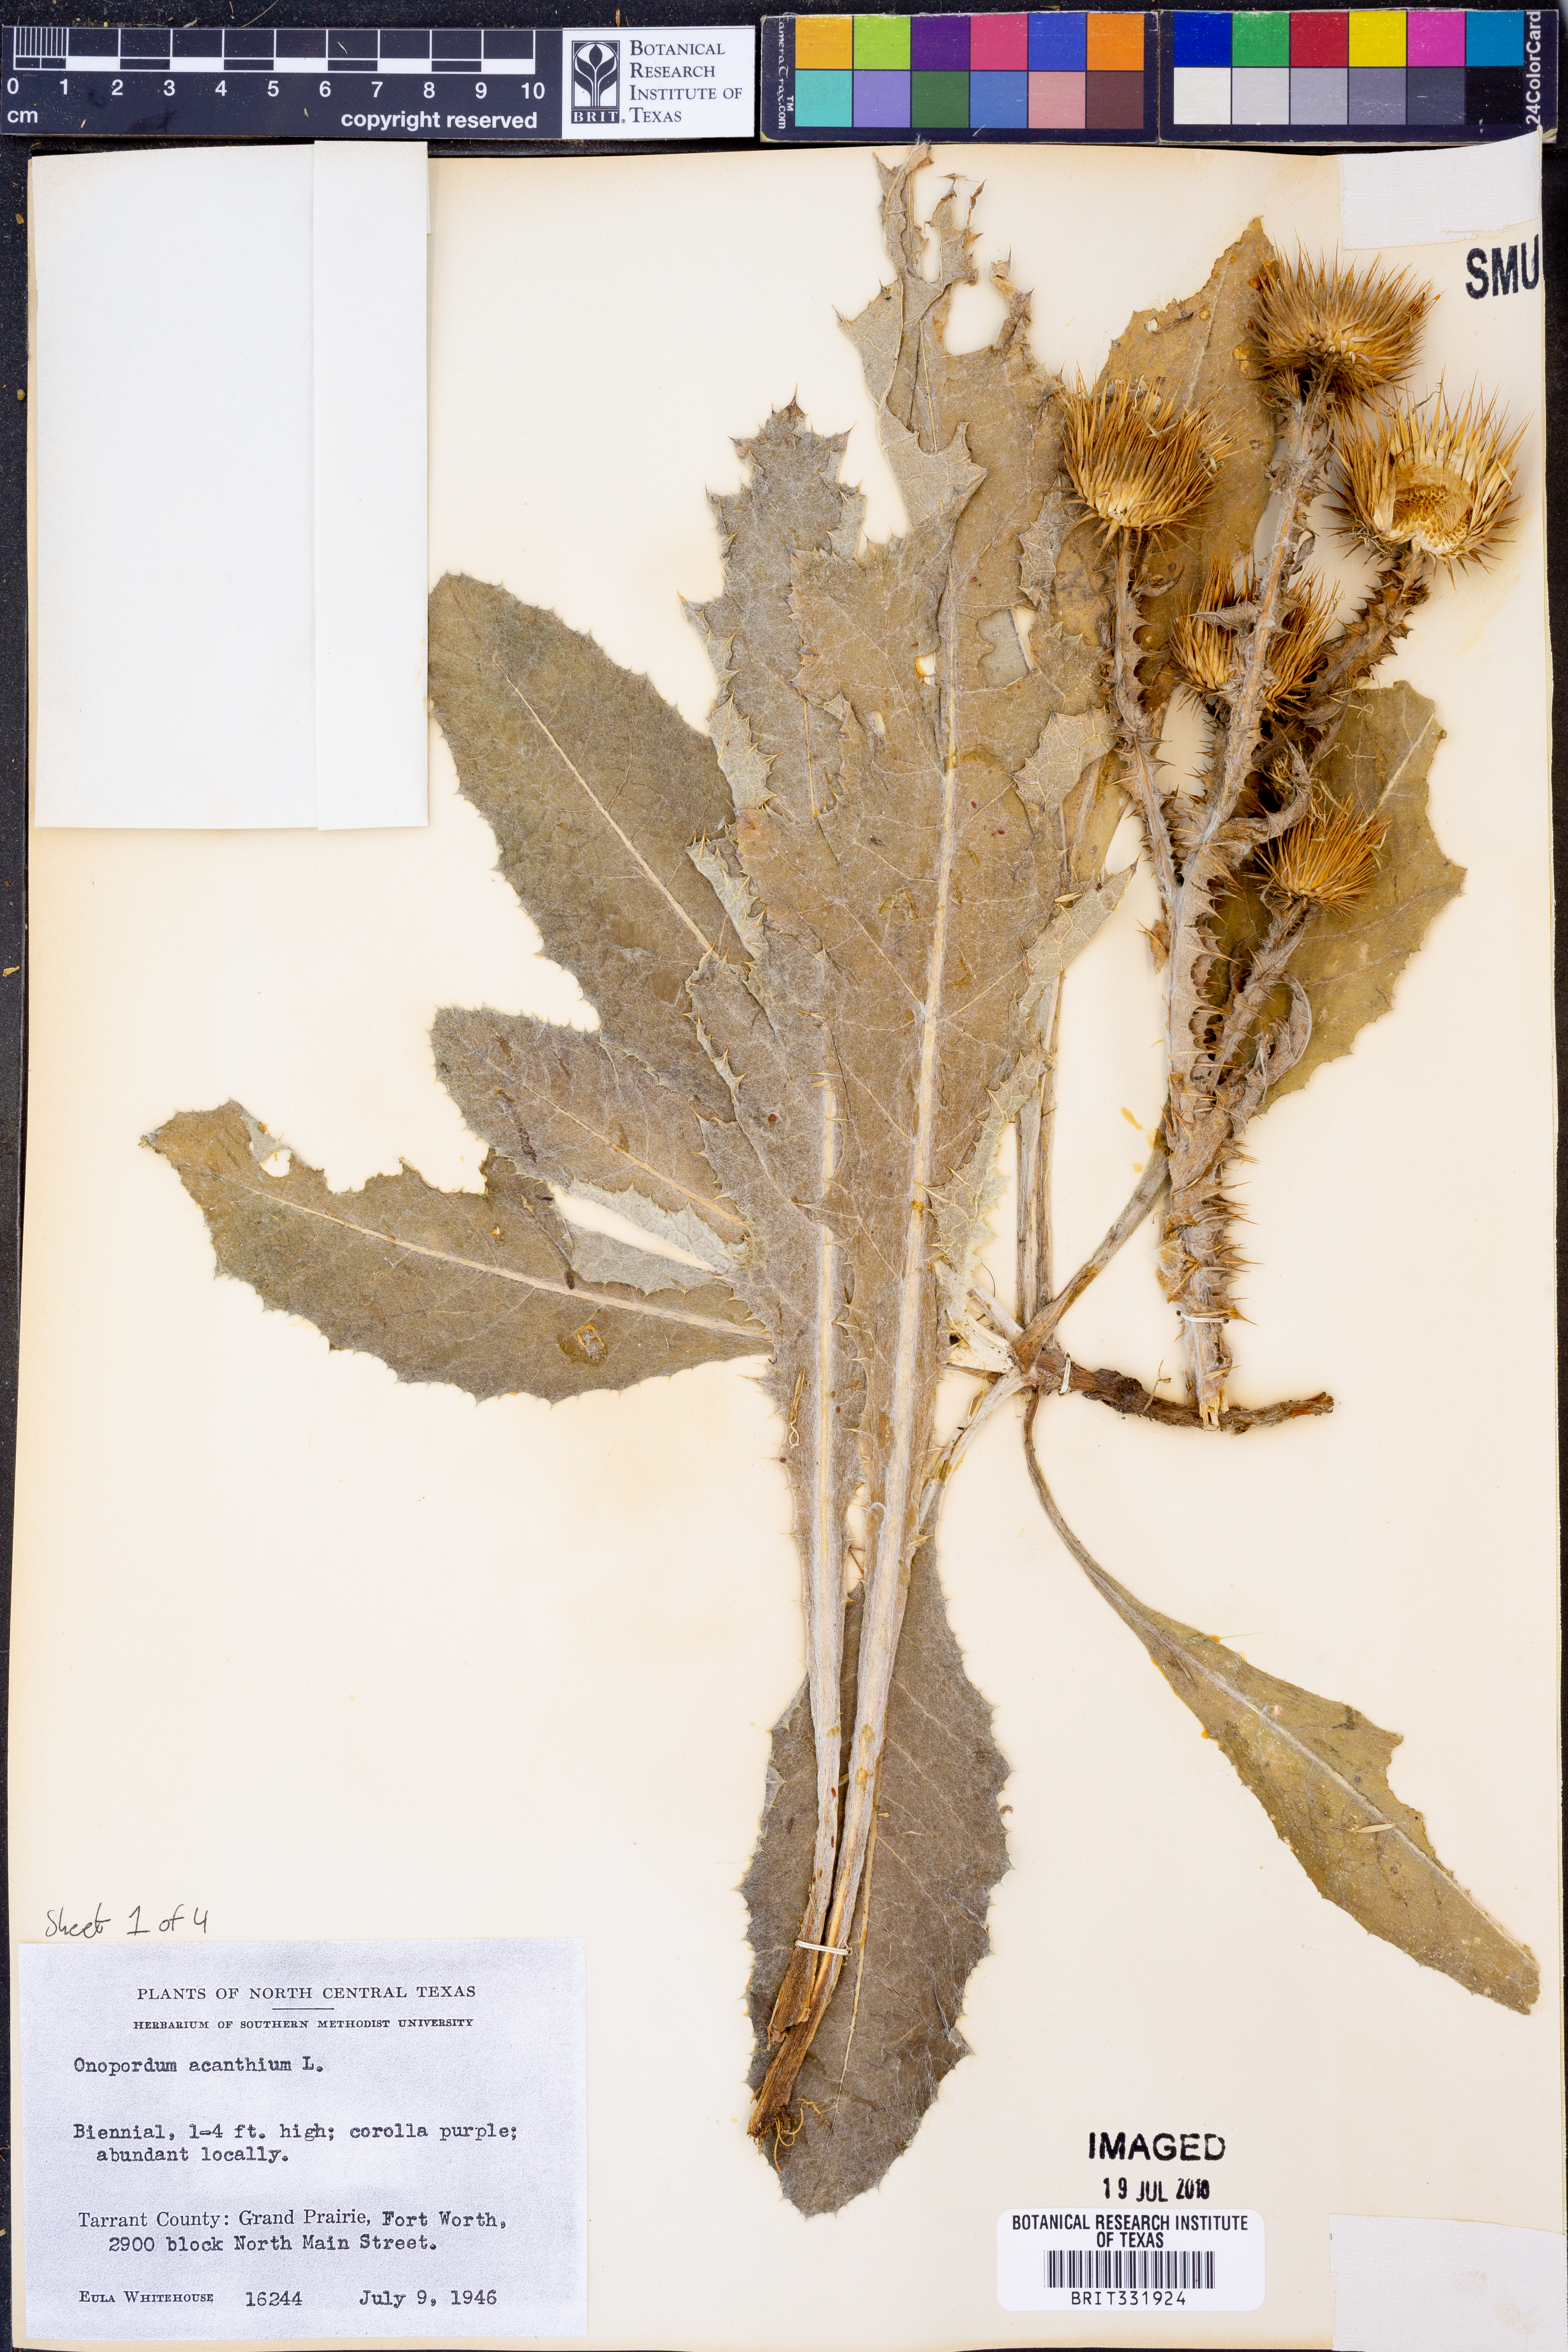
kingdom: Plantae
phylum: Tracheophyta
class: Magnoliopsida
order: Asterales
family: Asteraceae
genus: Onopordum
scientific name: Onopordum acanthium
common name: Scotch thistle
